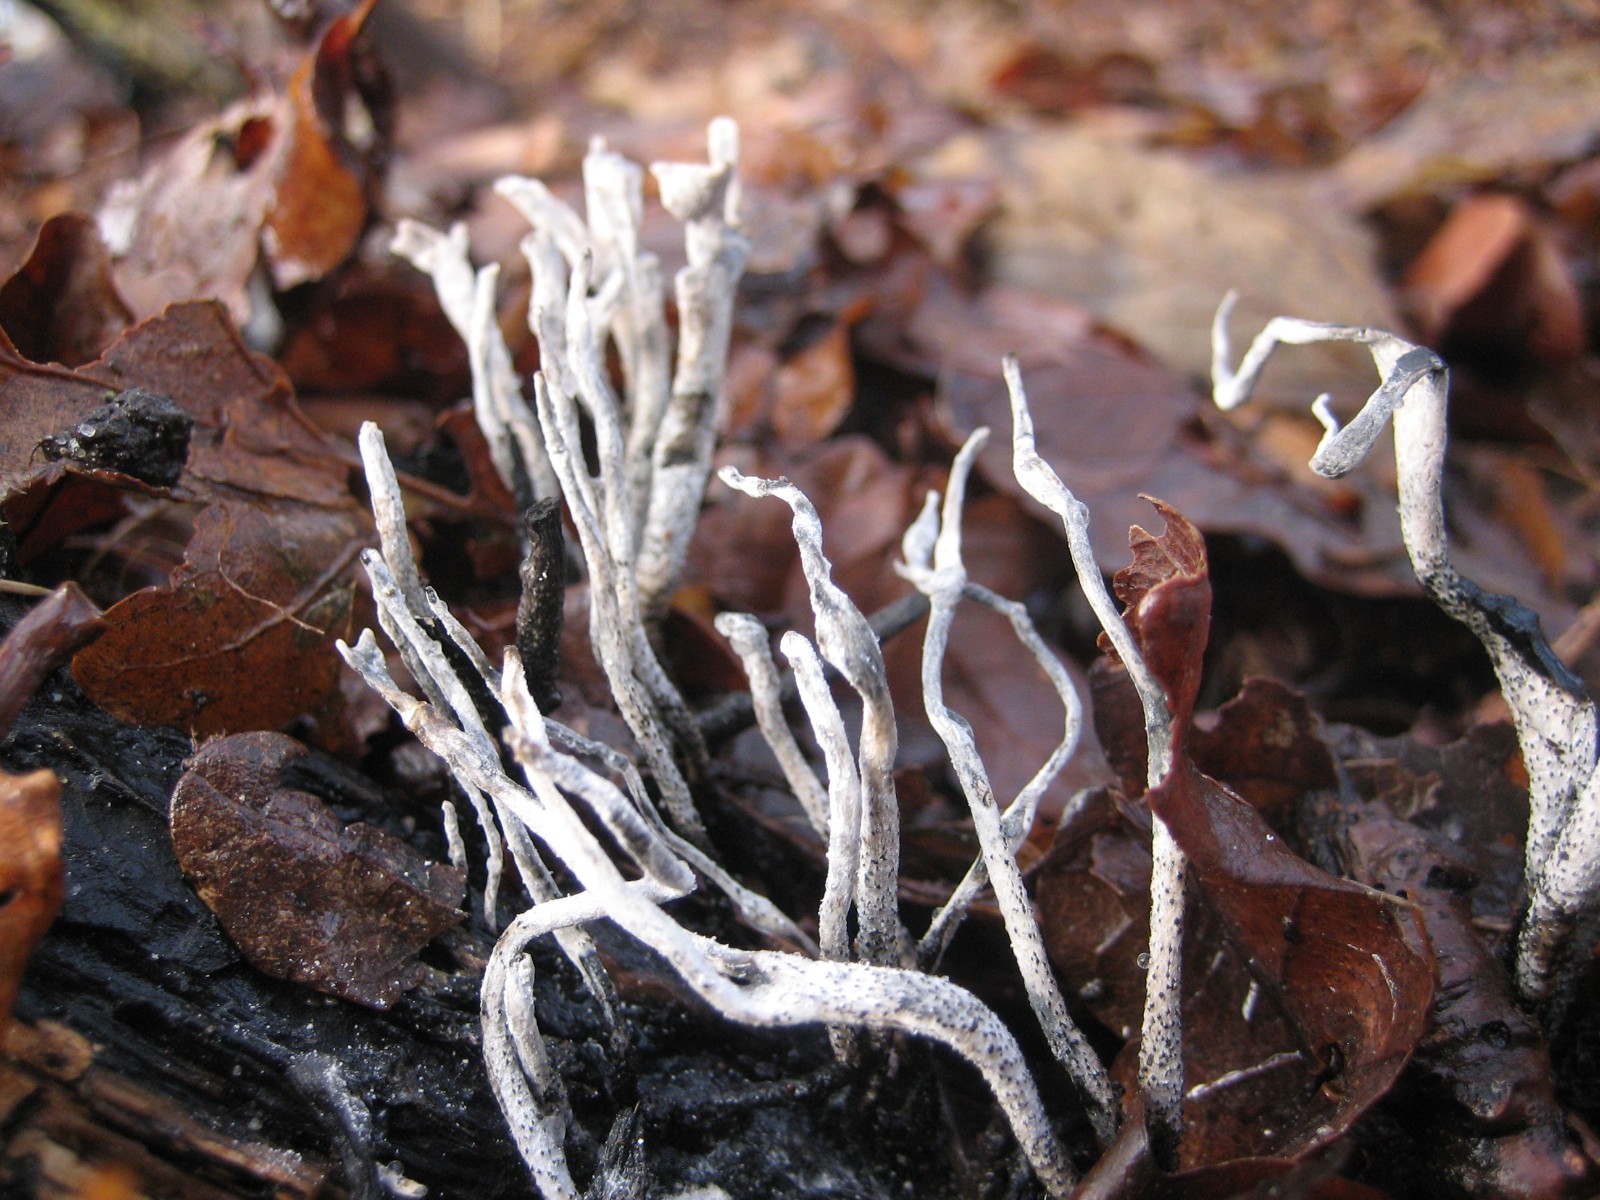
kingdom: Fungi
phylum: Ascomycota
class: Sordariomycetes
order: Xylariales
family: Xylariaceae
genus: Xylaria
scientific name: Xylaria hypoxylon
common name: grenet stødsvamp
